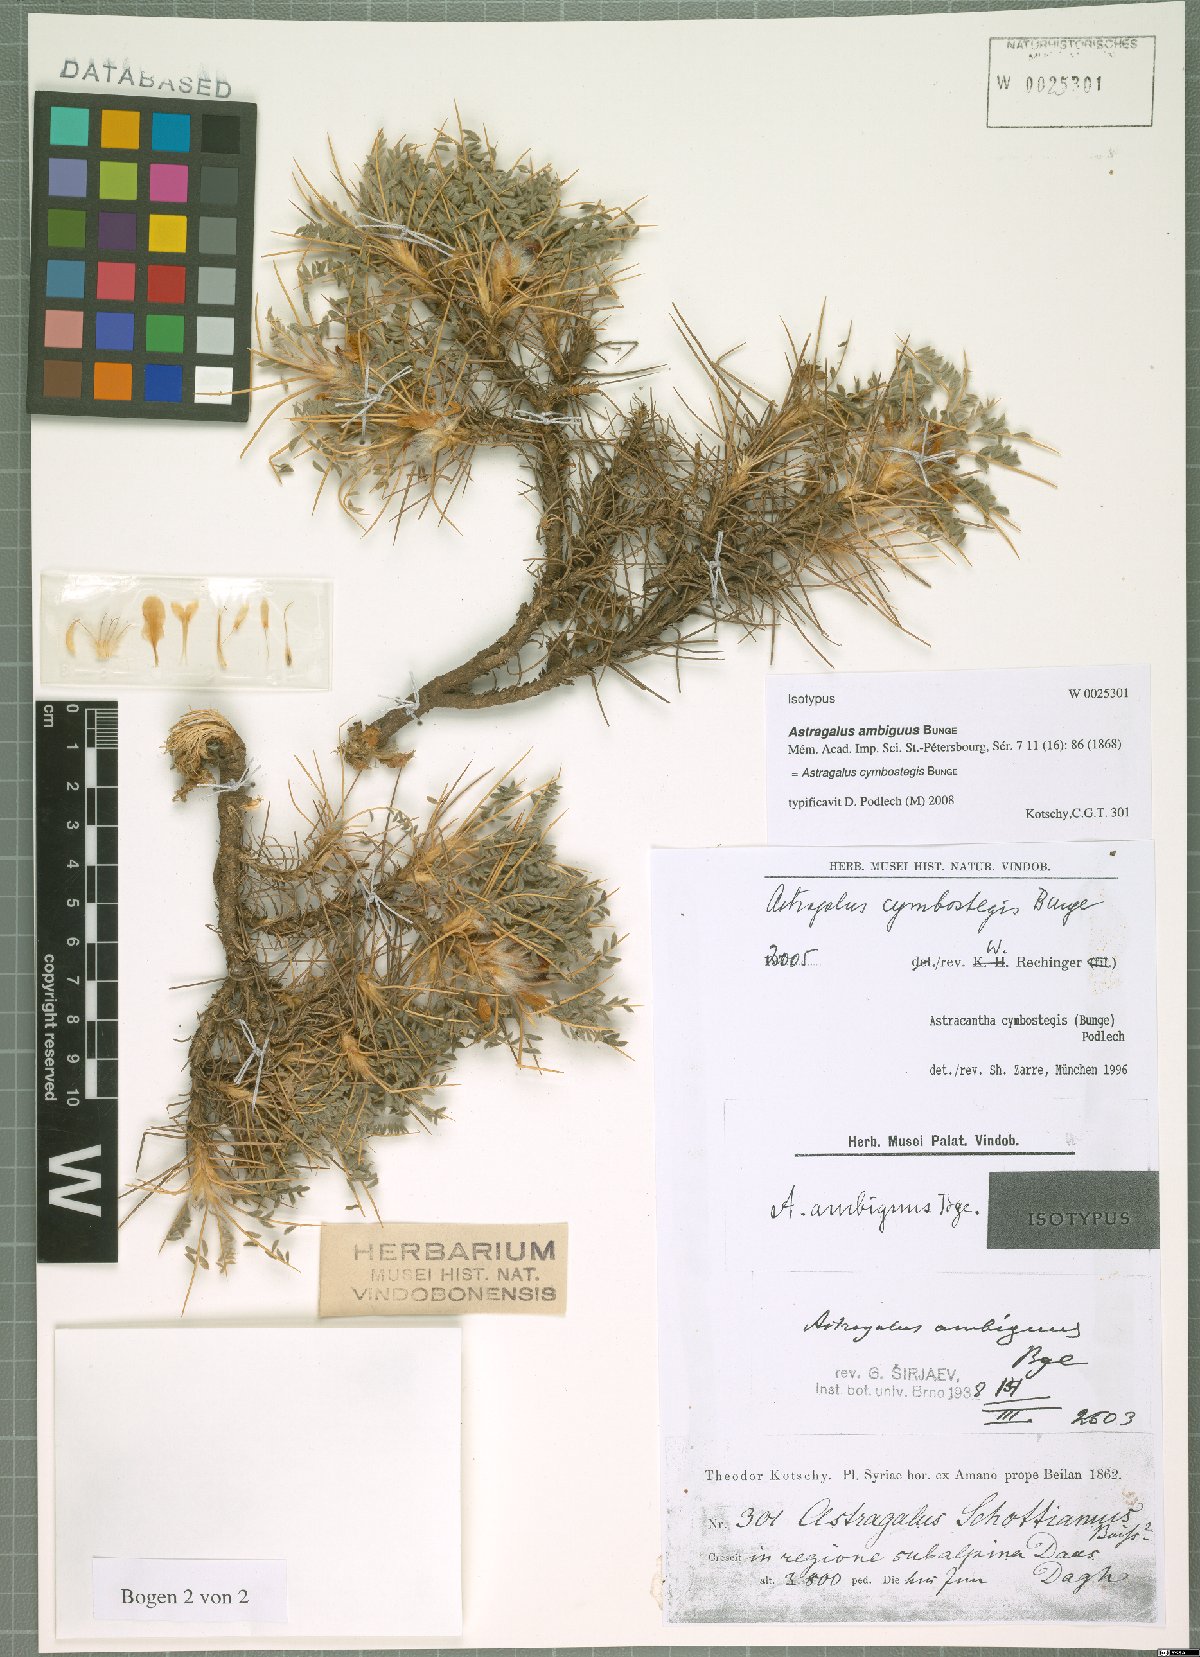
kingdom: Plantae
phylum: Tracheophyta
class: Magnoliopsida
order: Fabales
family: Fabaceae
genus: Astragalus
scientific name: Astragalus cymbostegis
